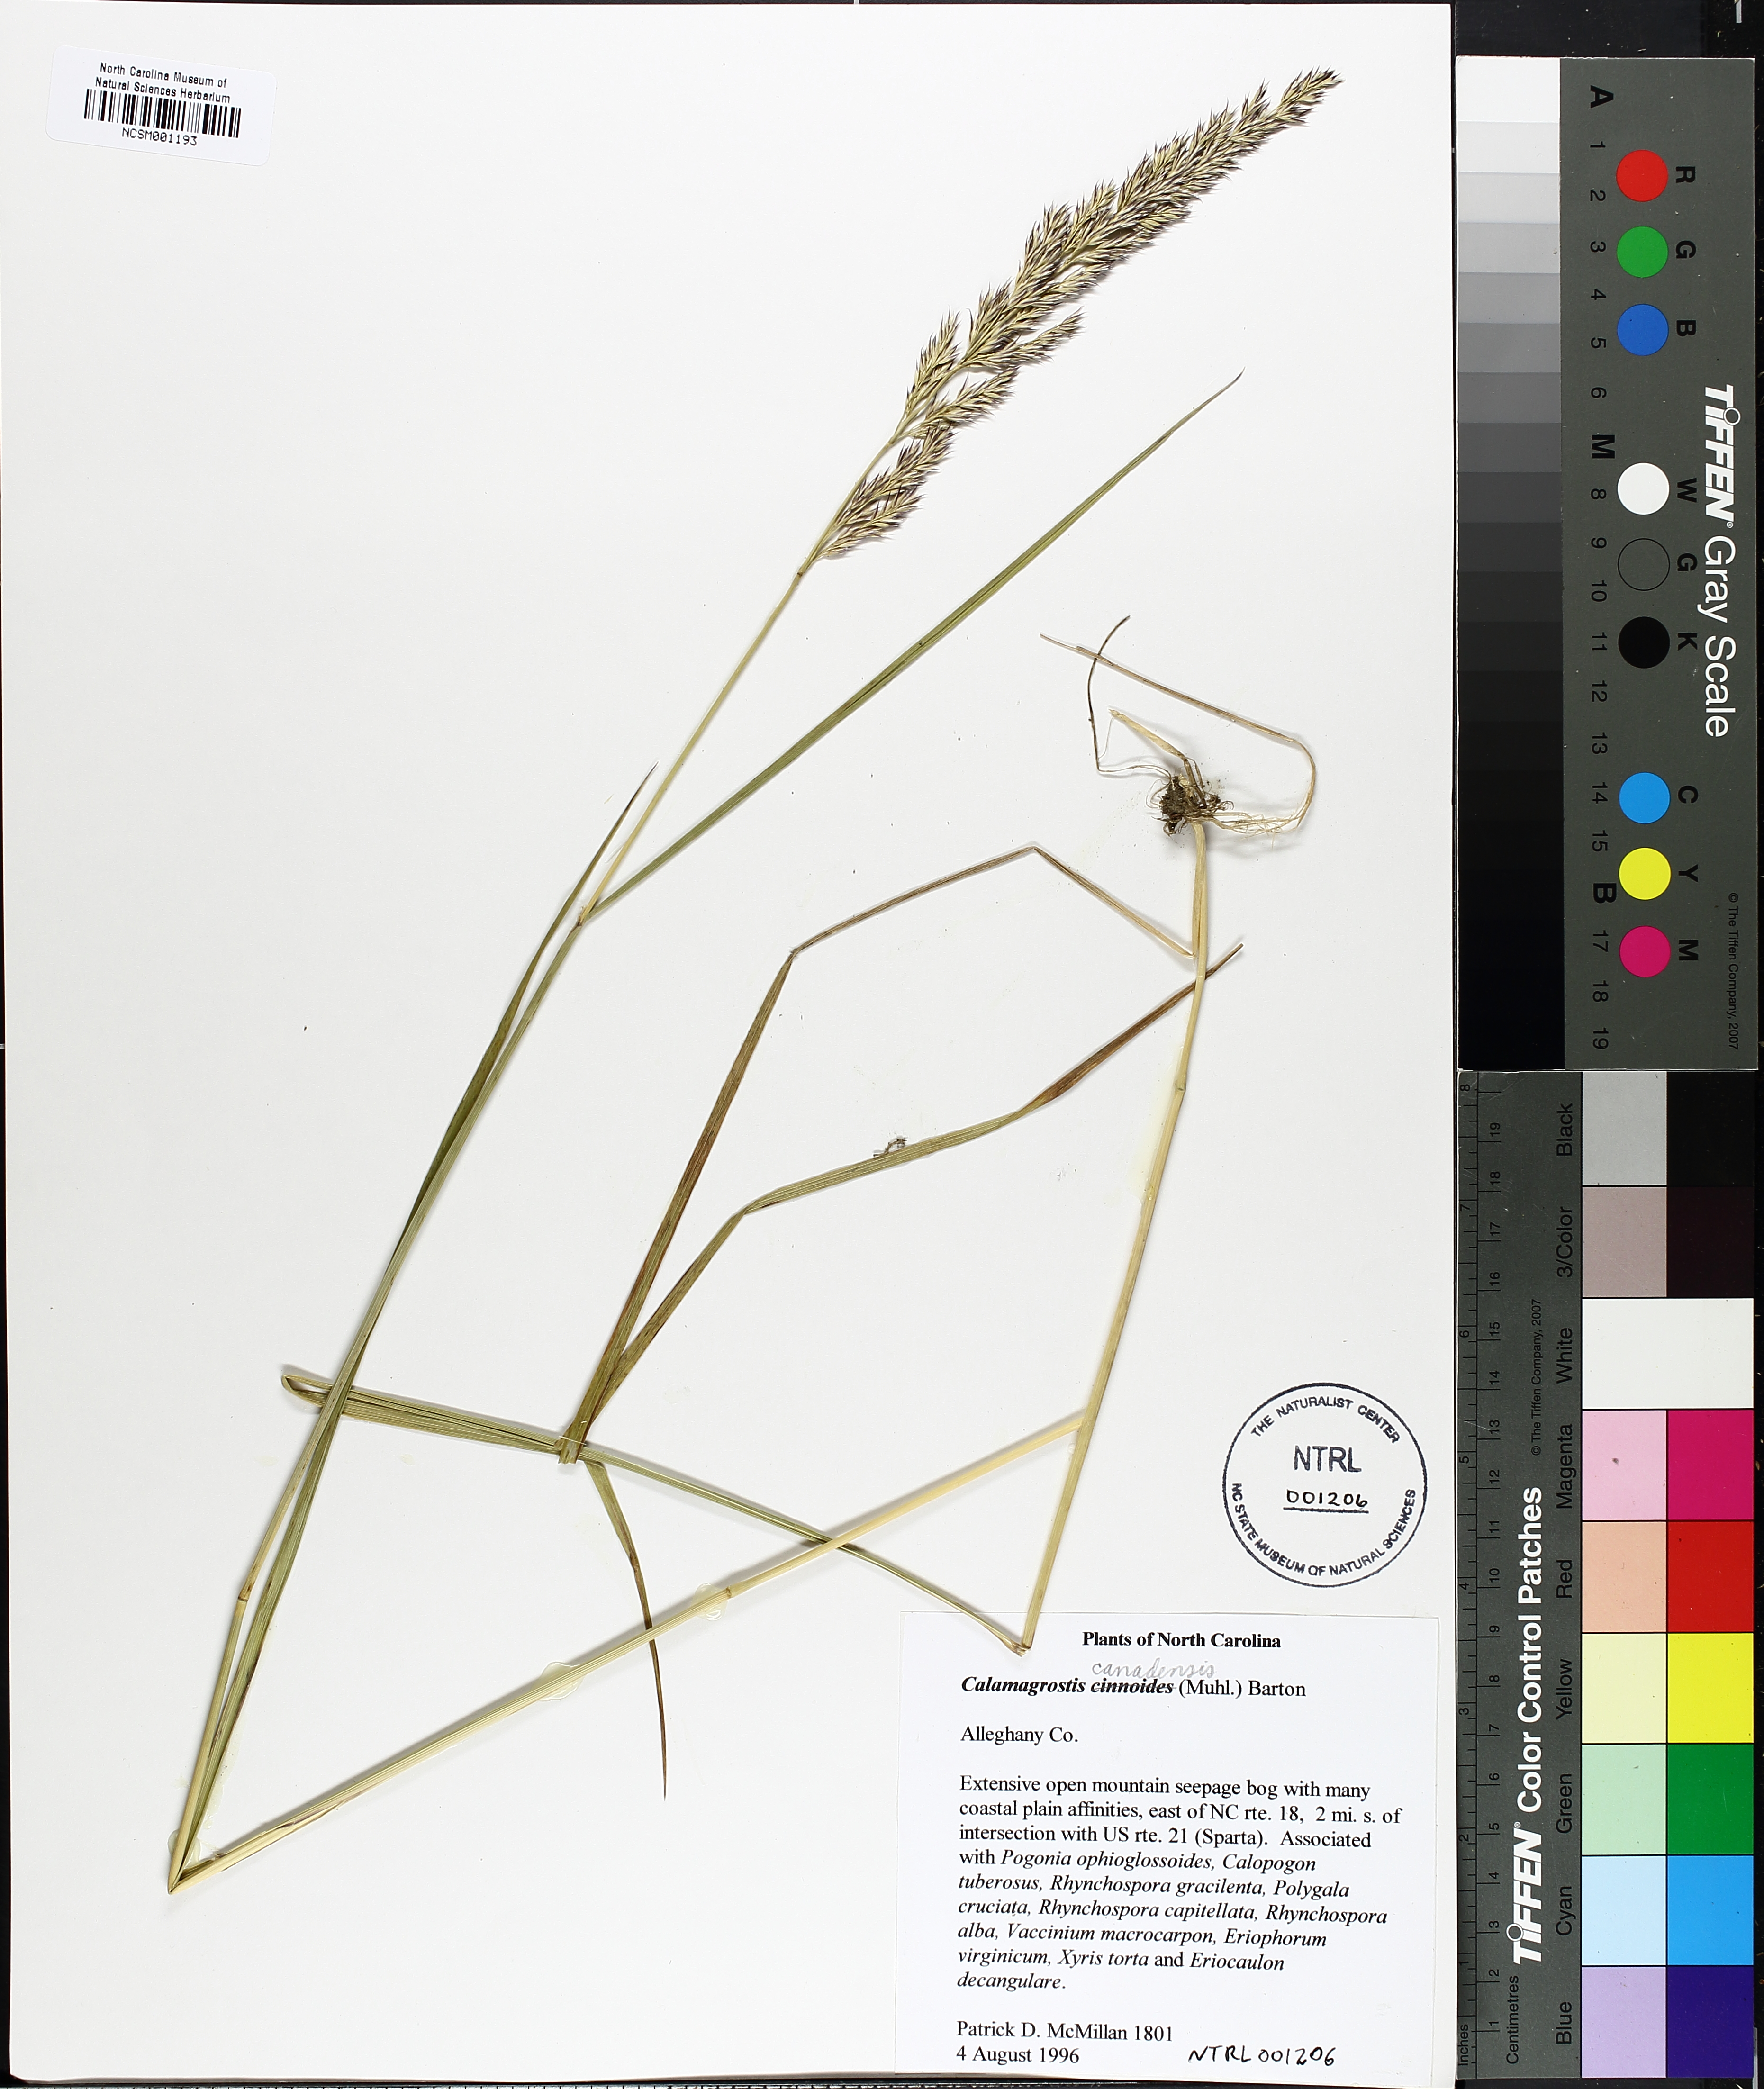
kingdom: Plantae
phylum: Tracheophyta
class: Liliopsida
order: Poales
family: Poaceae
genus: Calamagrostis
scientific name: Calamagrostis canadensis
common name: Canada bluejoint
